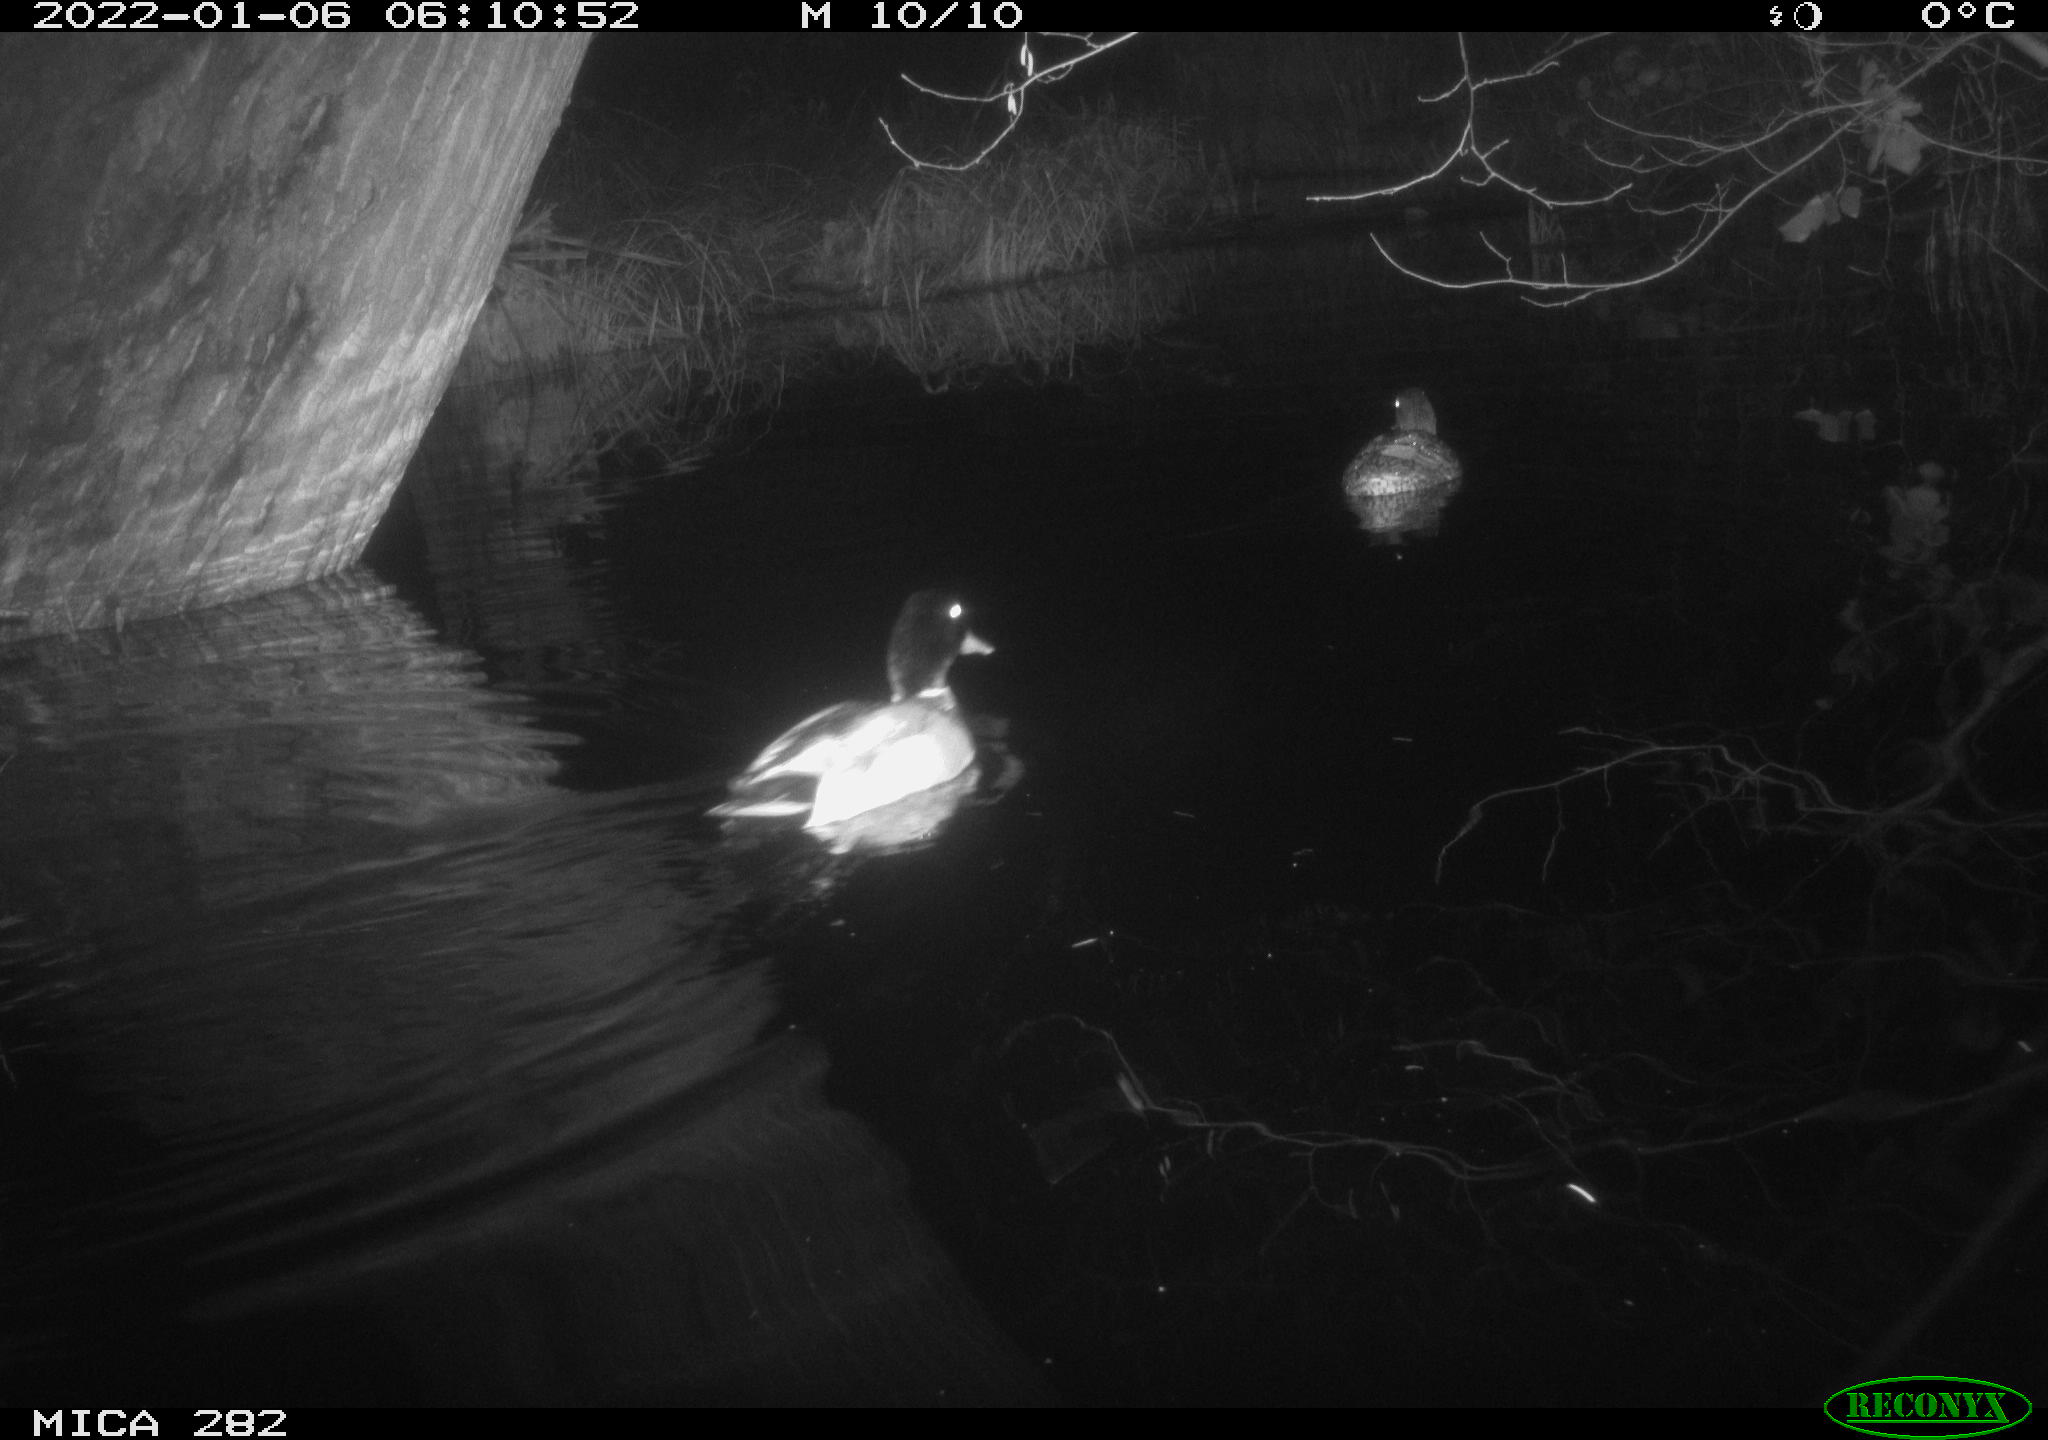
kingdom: Animalia
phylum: Chordata
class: Aves
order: Anseriformes
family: Anatidae
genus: Anas
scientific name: Anas platyrhynchos
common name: Mallard
